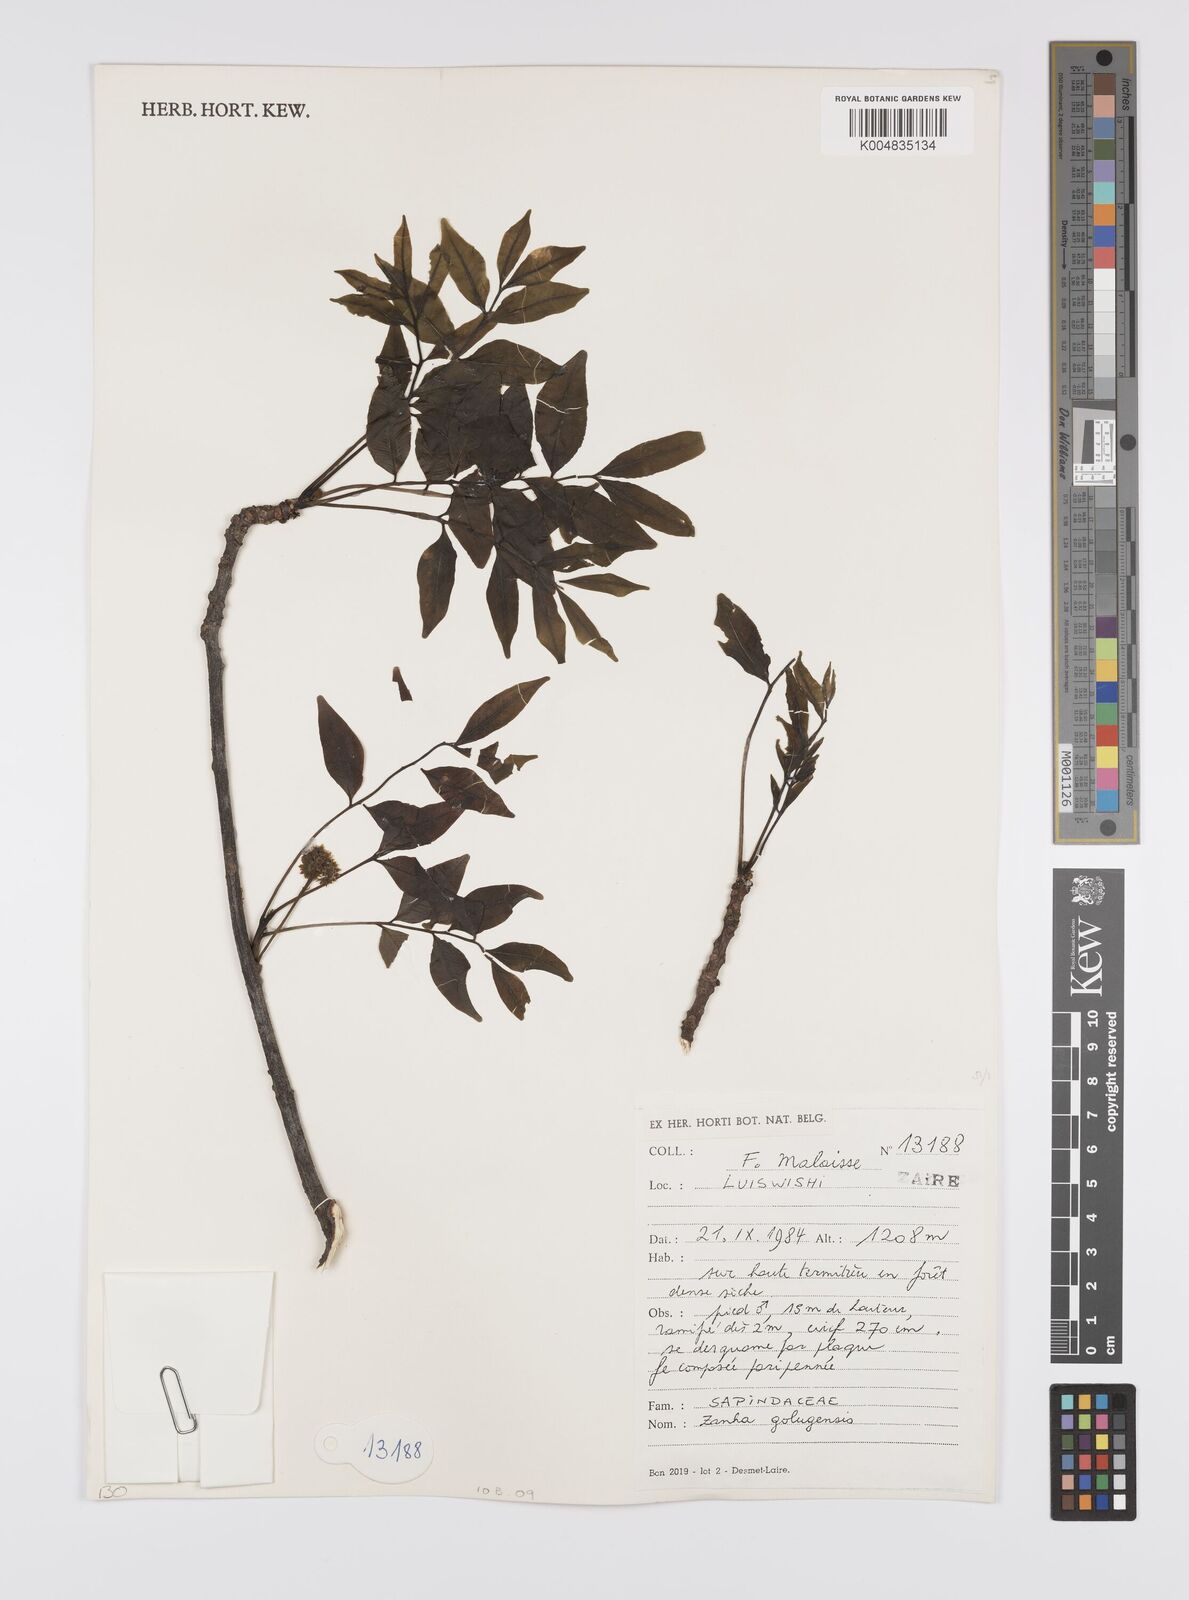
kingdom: Plantae
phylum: Tracheophyta
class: Magnoliopsida
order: Sapindales
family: Sapindaceae
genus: Zanha
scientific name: Zanha golungensis
